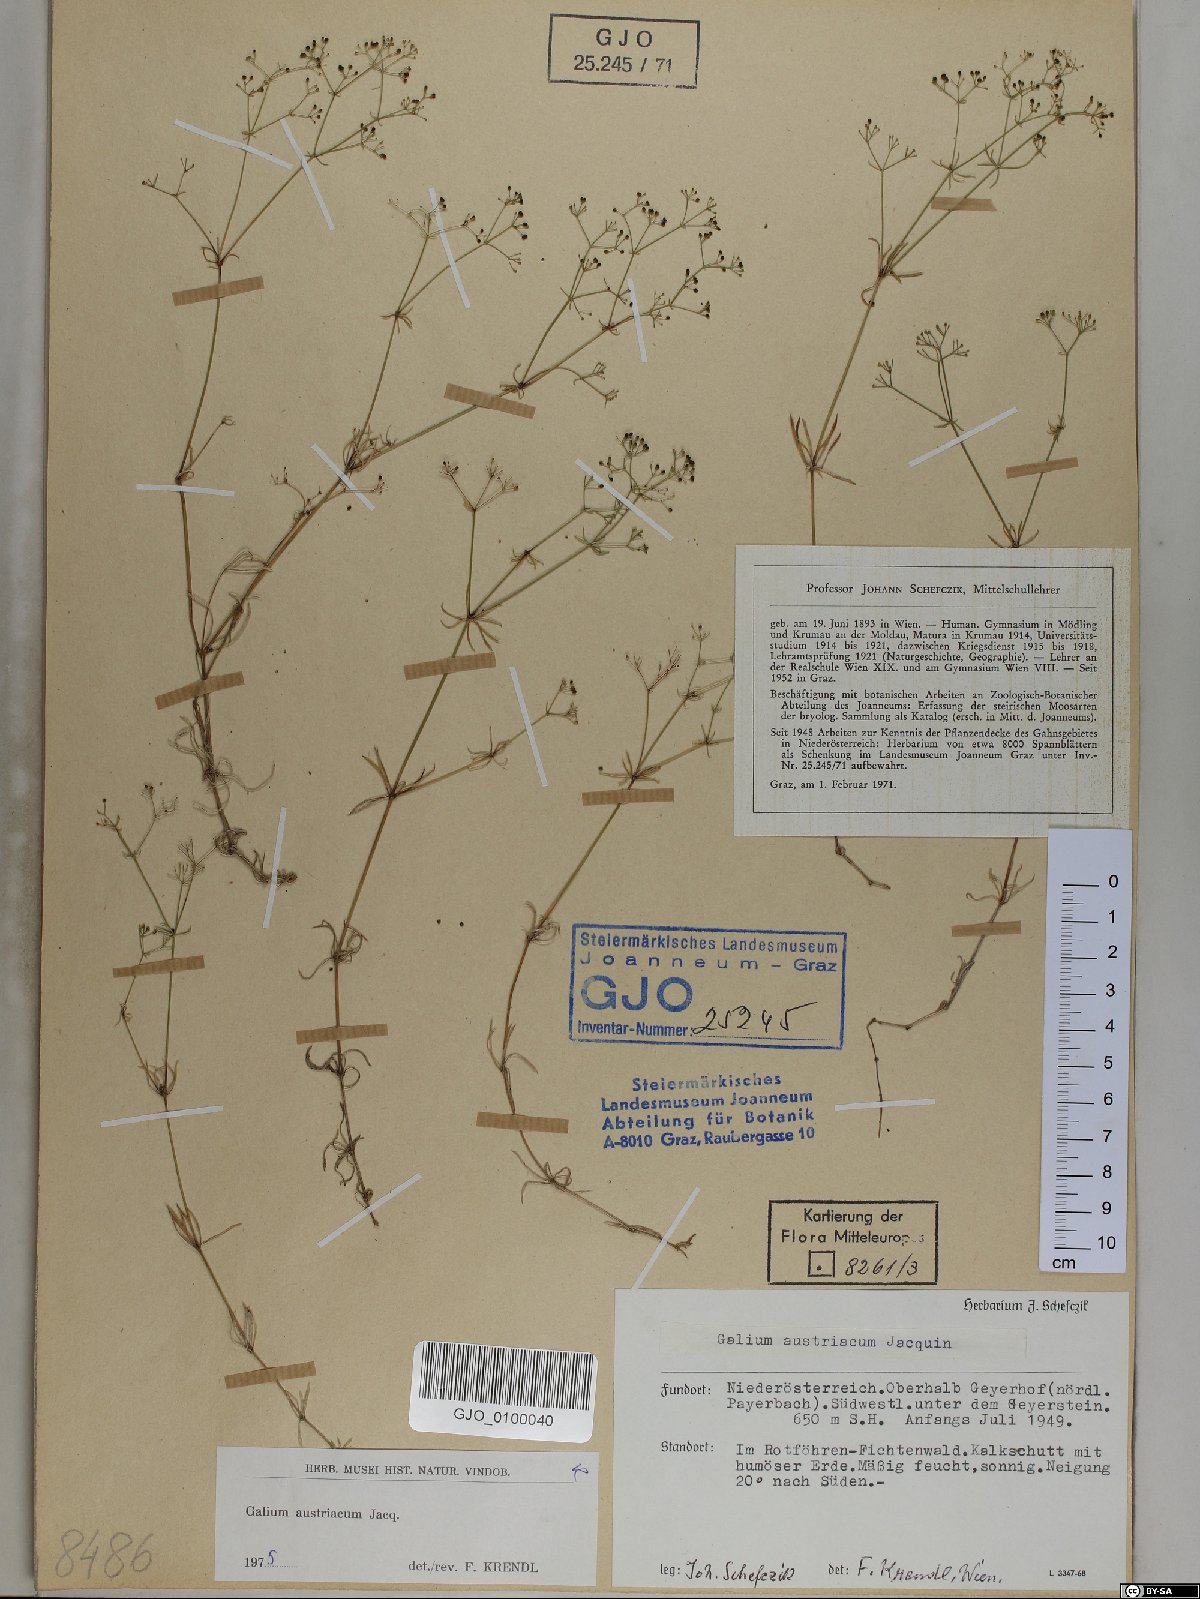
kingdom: Plantae
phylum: Tracheophyta
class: Magnoliopsida
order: Gentianales
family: Rubiaceae
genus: Galium
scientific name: Galium austriacum
